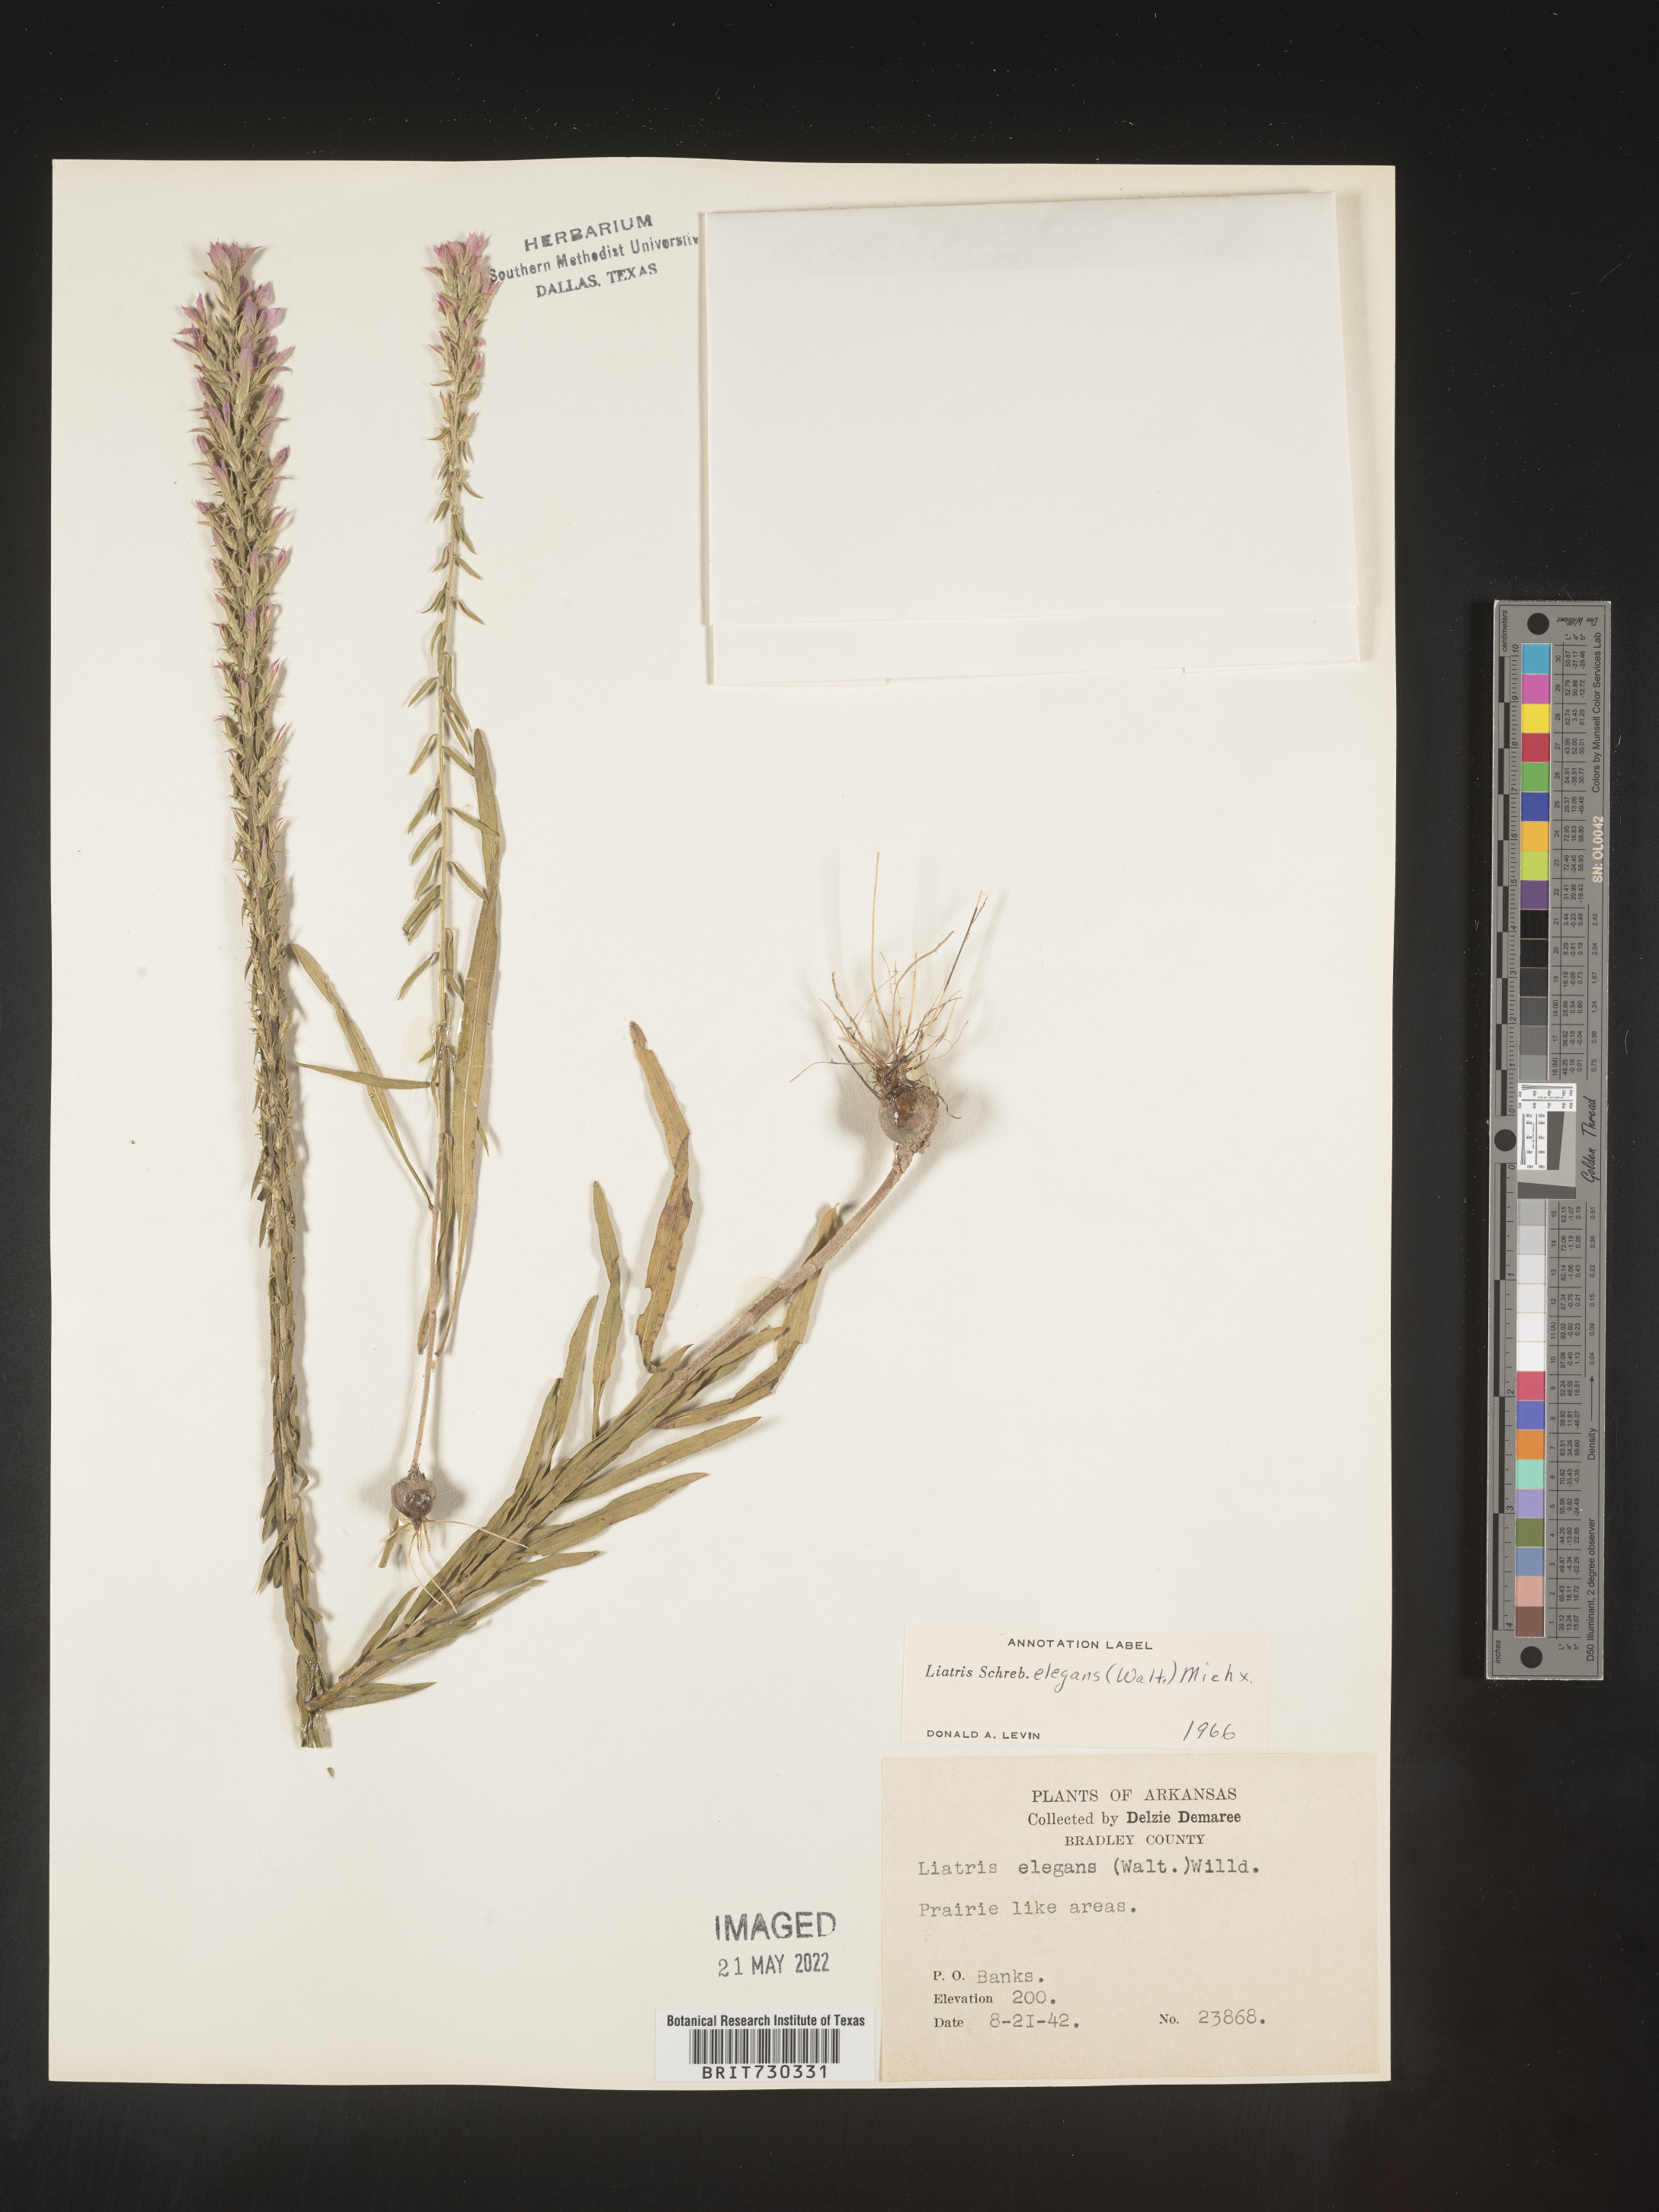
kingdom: Plantae
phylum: Tracheophyta
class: Magnoliopsida
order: Asterales
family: Asteraceae
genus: Liatris
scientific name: Liatris elegans
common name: Pinkscale gayfeather
